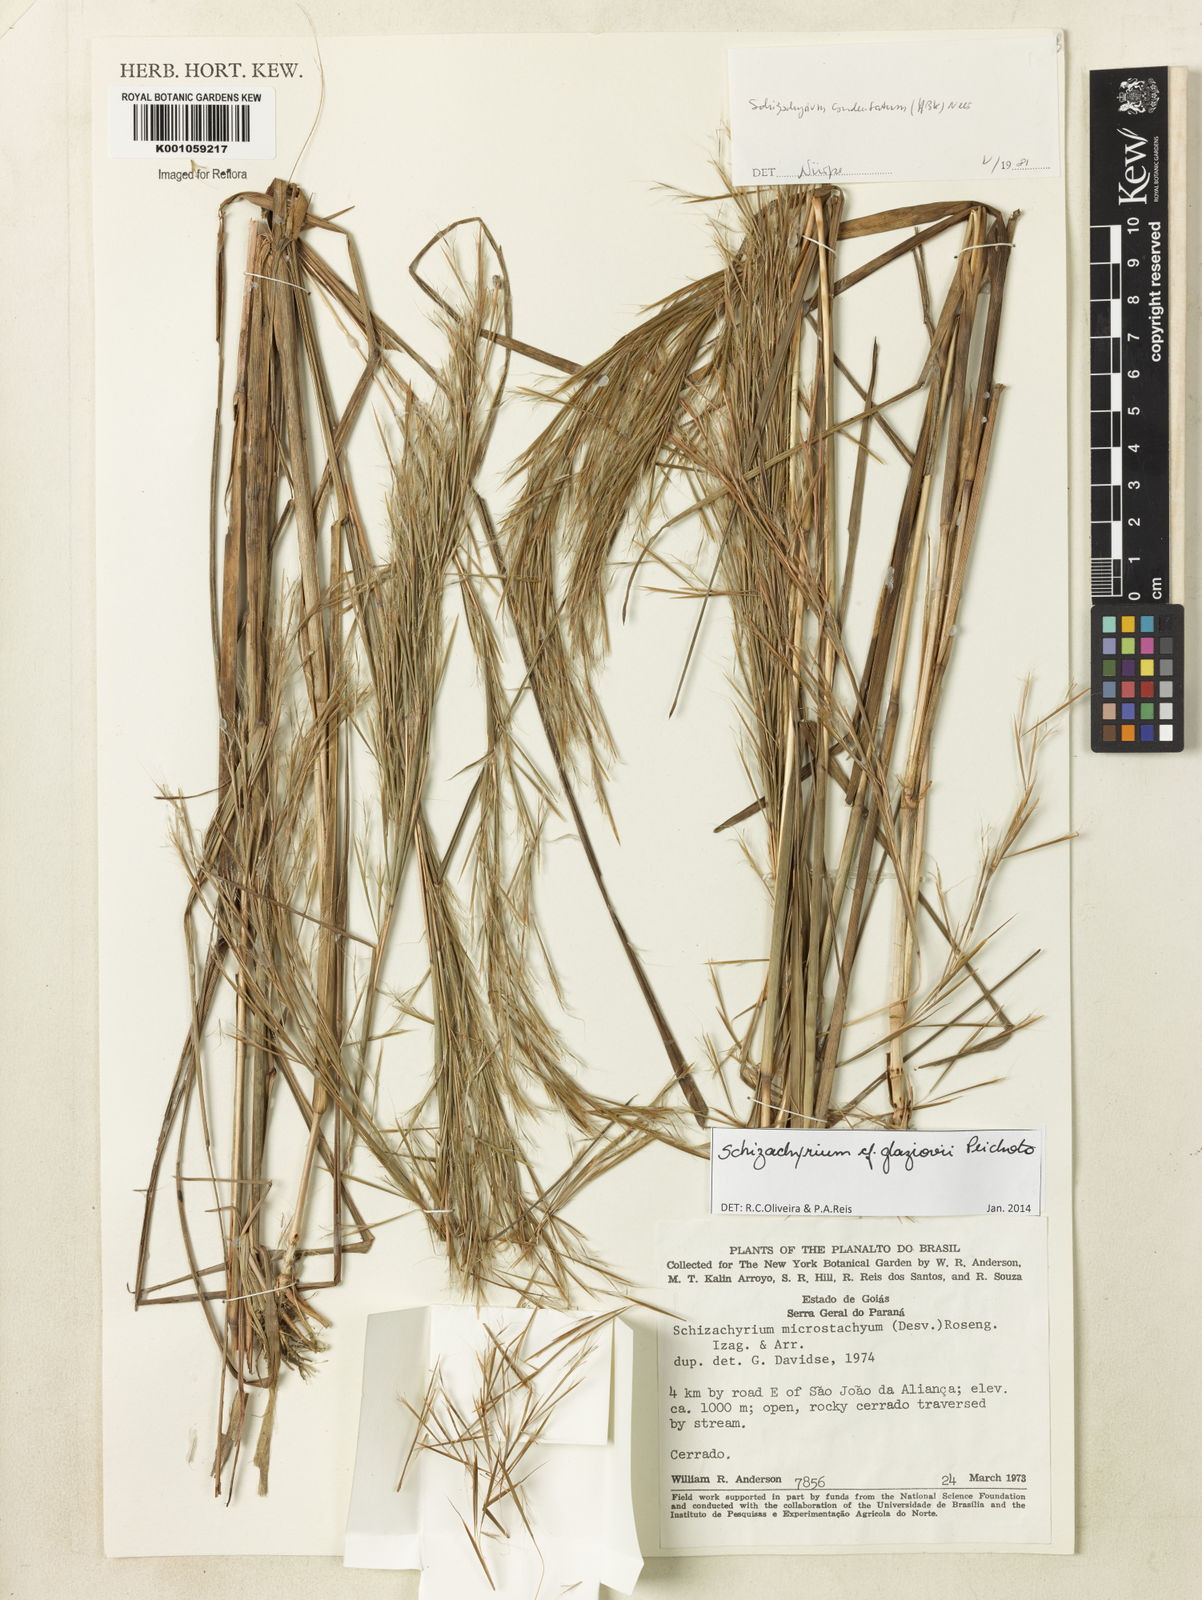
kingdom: Plantae
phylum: Tracheophyta
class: Liliopsida
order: Poales
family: Poaceae
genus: Schizachyrium
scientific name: Schizachyrium glaziovii
